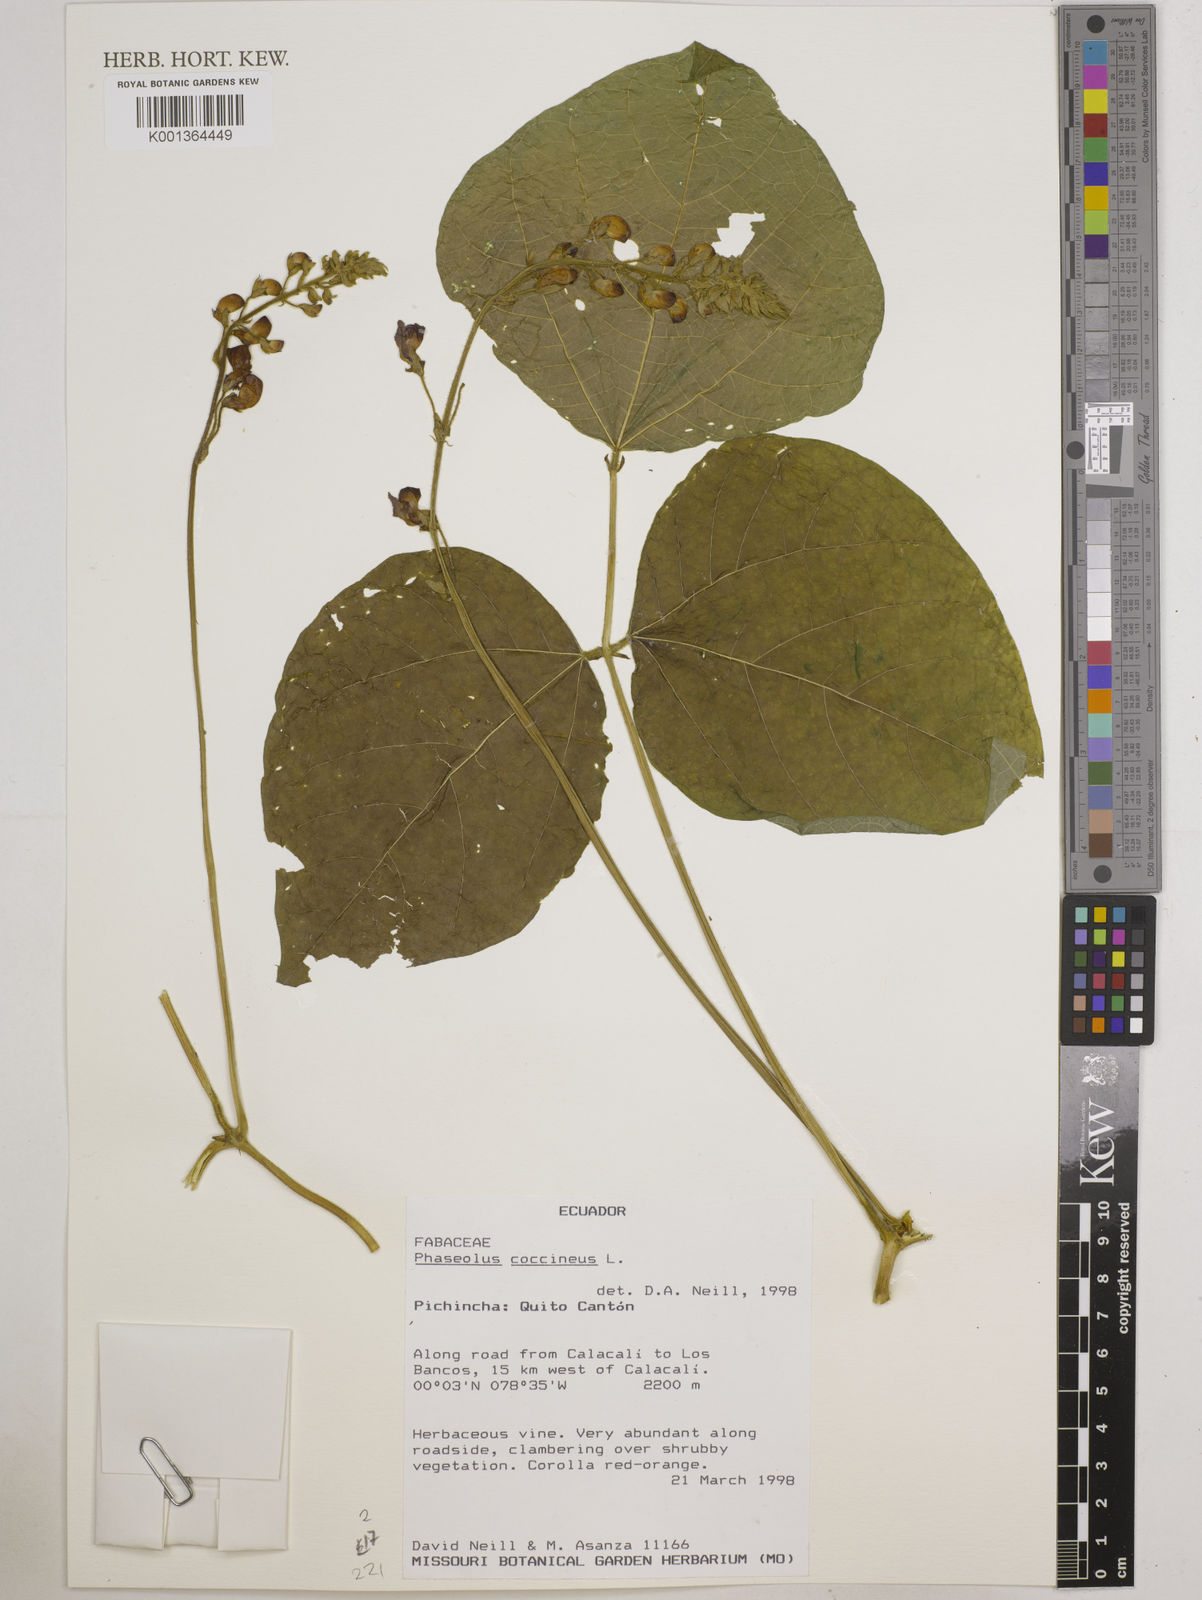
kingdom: Plantae
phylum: Tracheophyta
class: Magnoliopsida
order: Fabales
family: Fabaceae
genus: Phaseolus
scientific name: Phaseolus coccineus
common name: Runner bean
